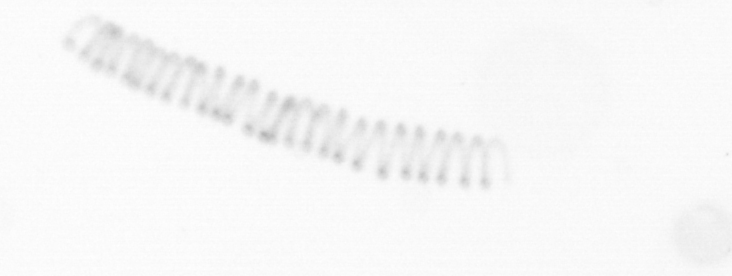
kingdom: Chromista
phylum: Ochrophyta
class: Bacillariophyceae
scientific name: Bacillariophyceae
